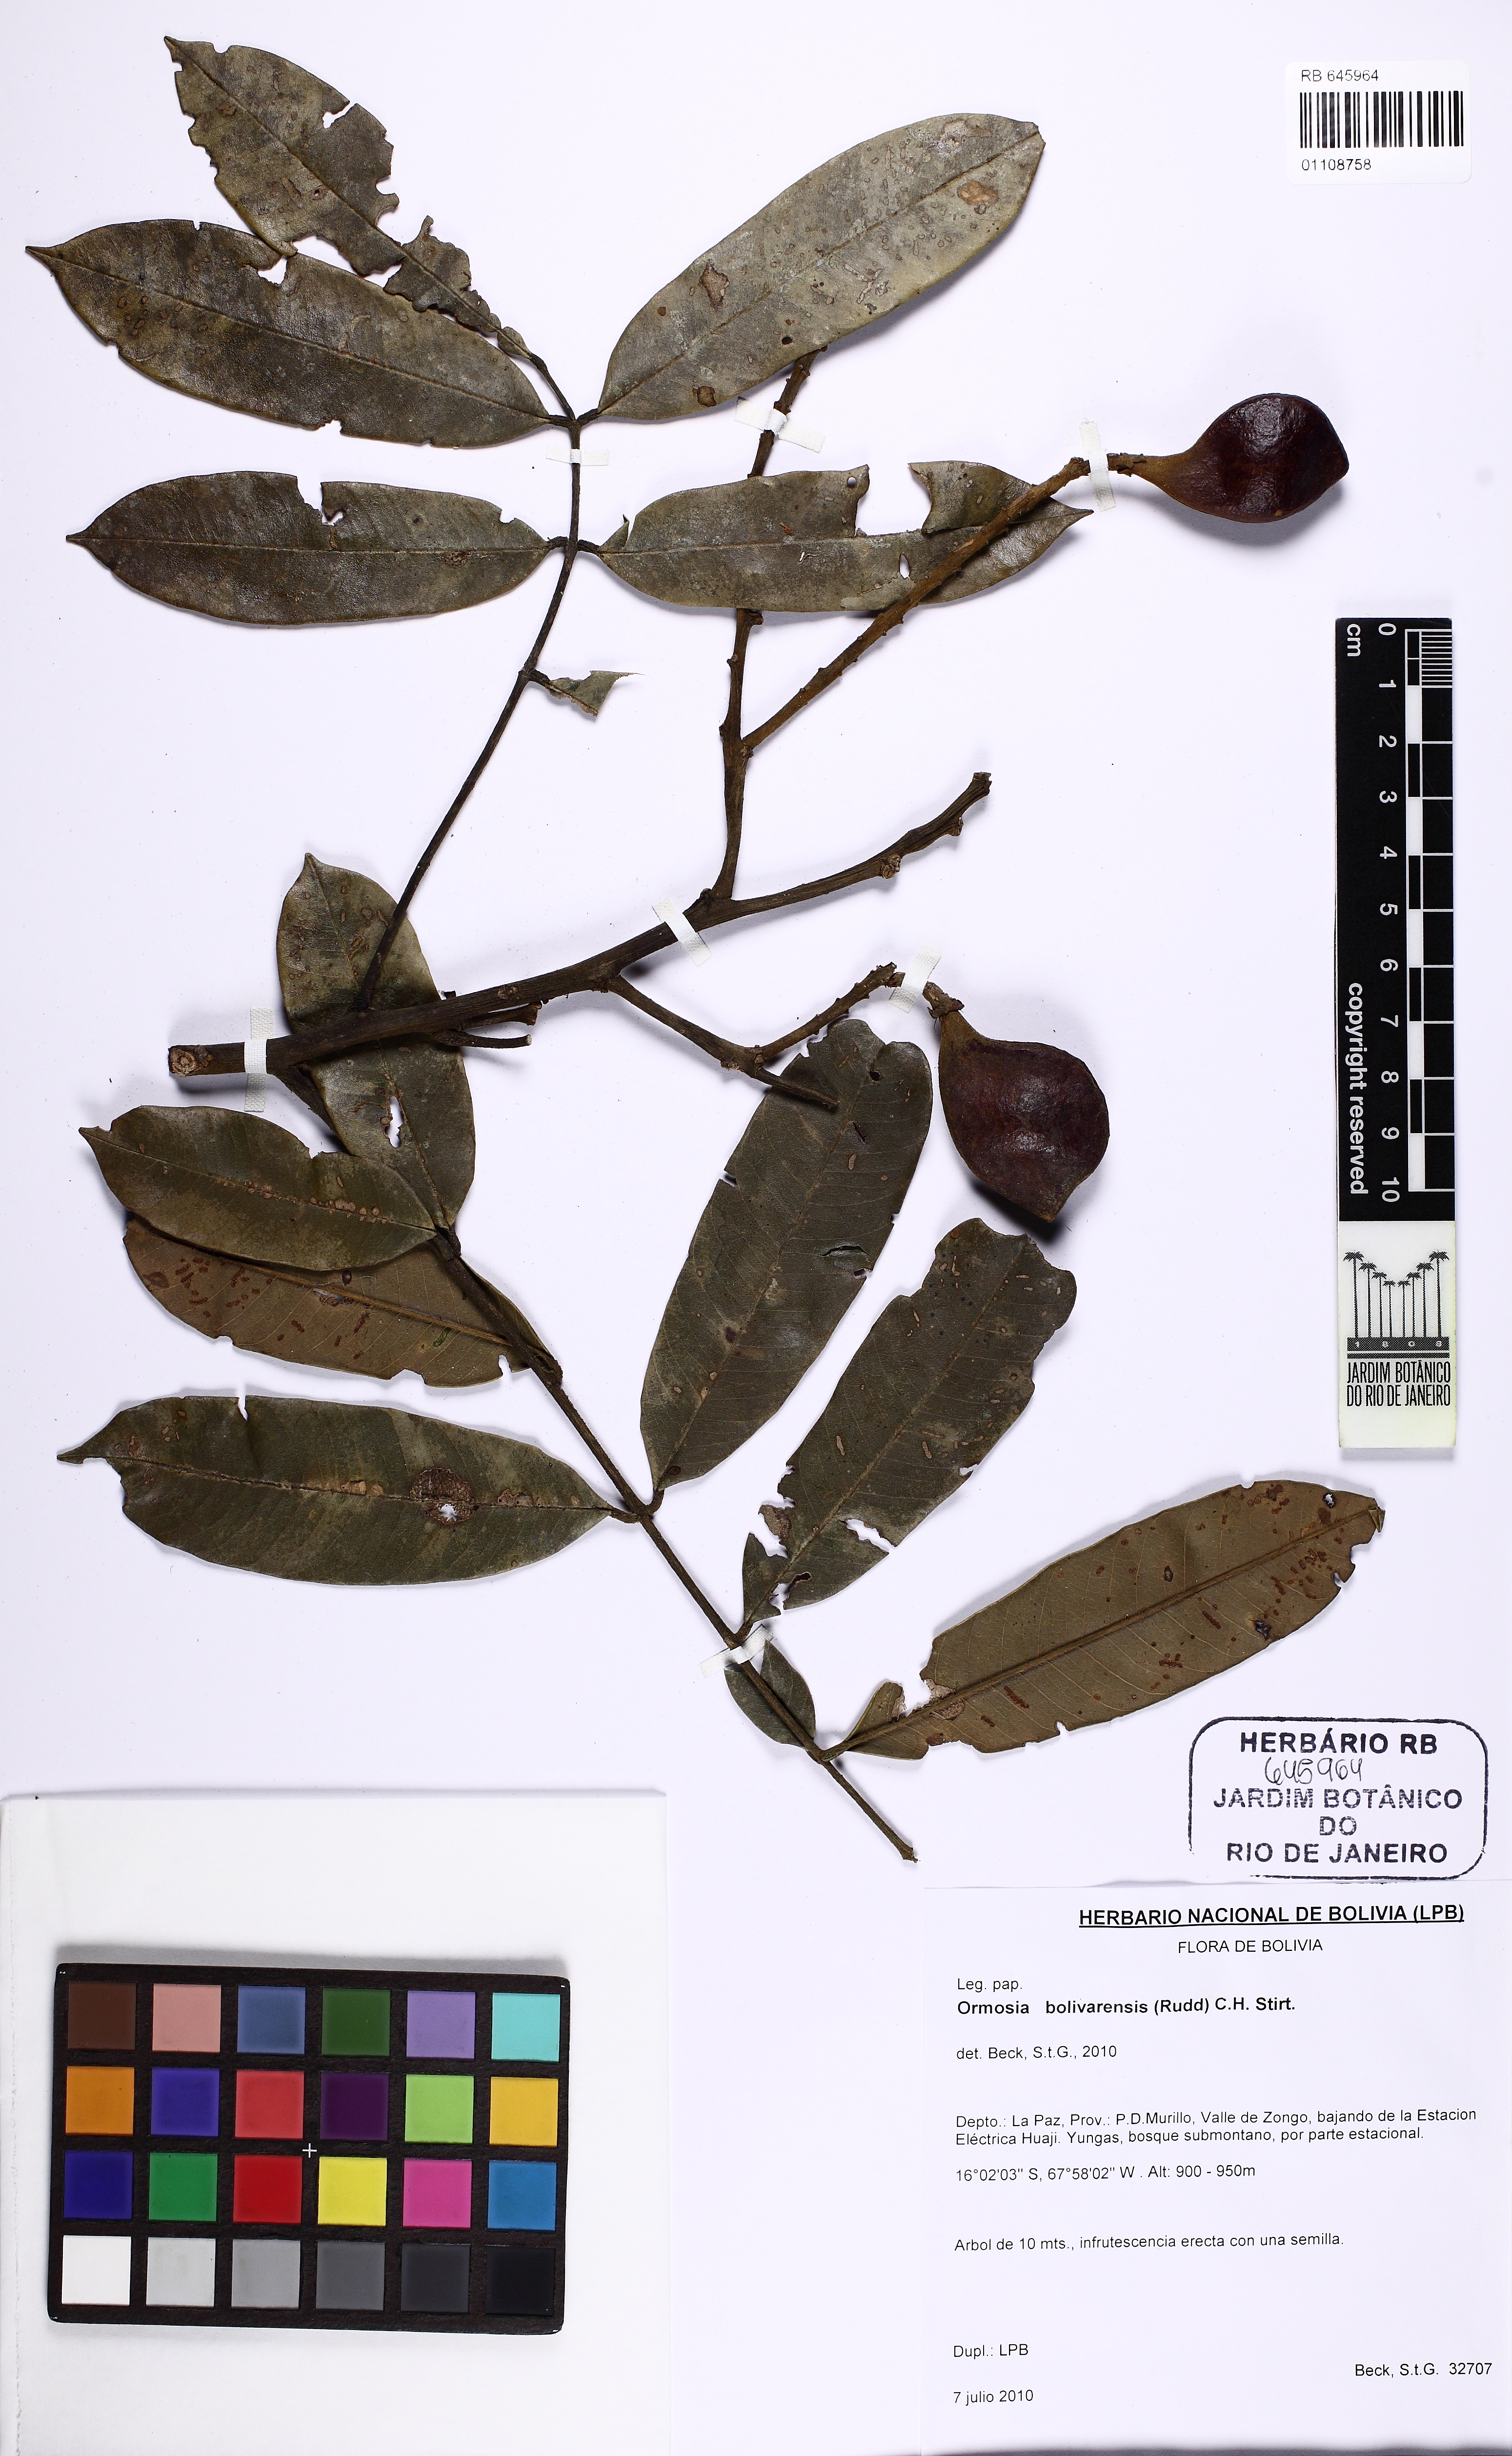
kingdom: Plantae
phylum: Tracheophyta
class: Magnoliopsida
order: Fabales
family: Fabaceae
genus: Ormosia
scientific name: Ormosia bolivarensis
